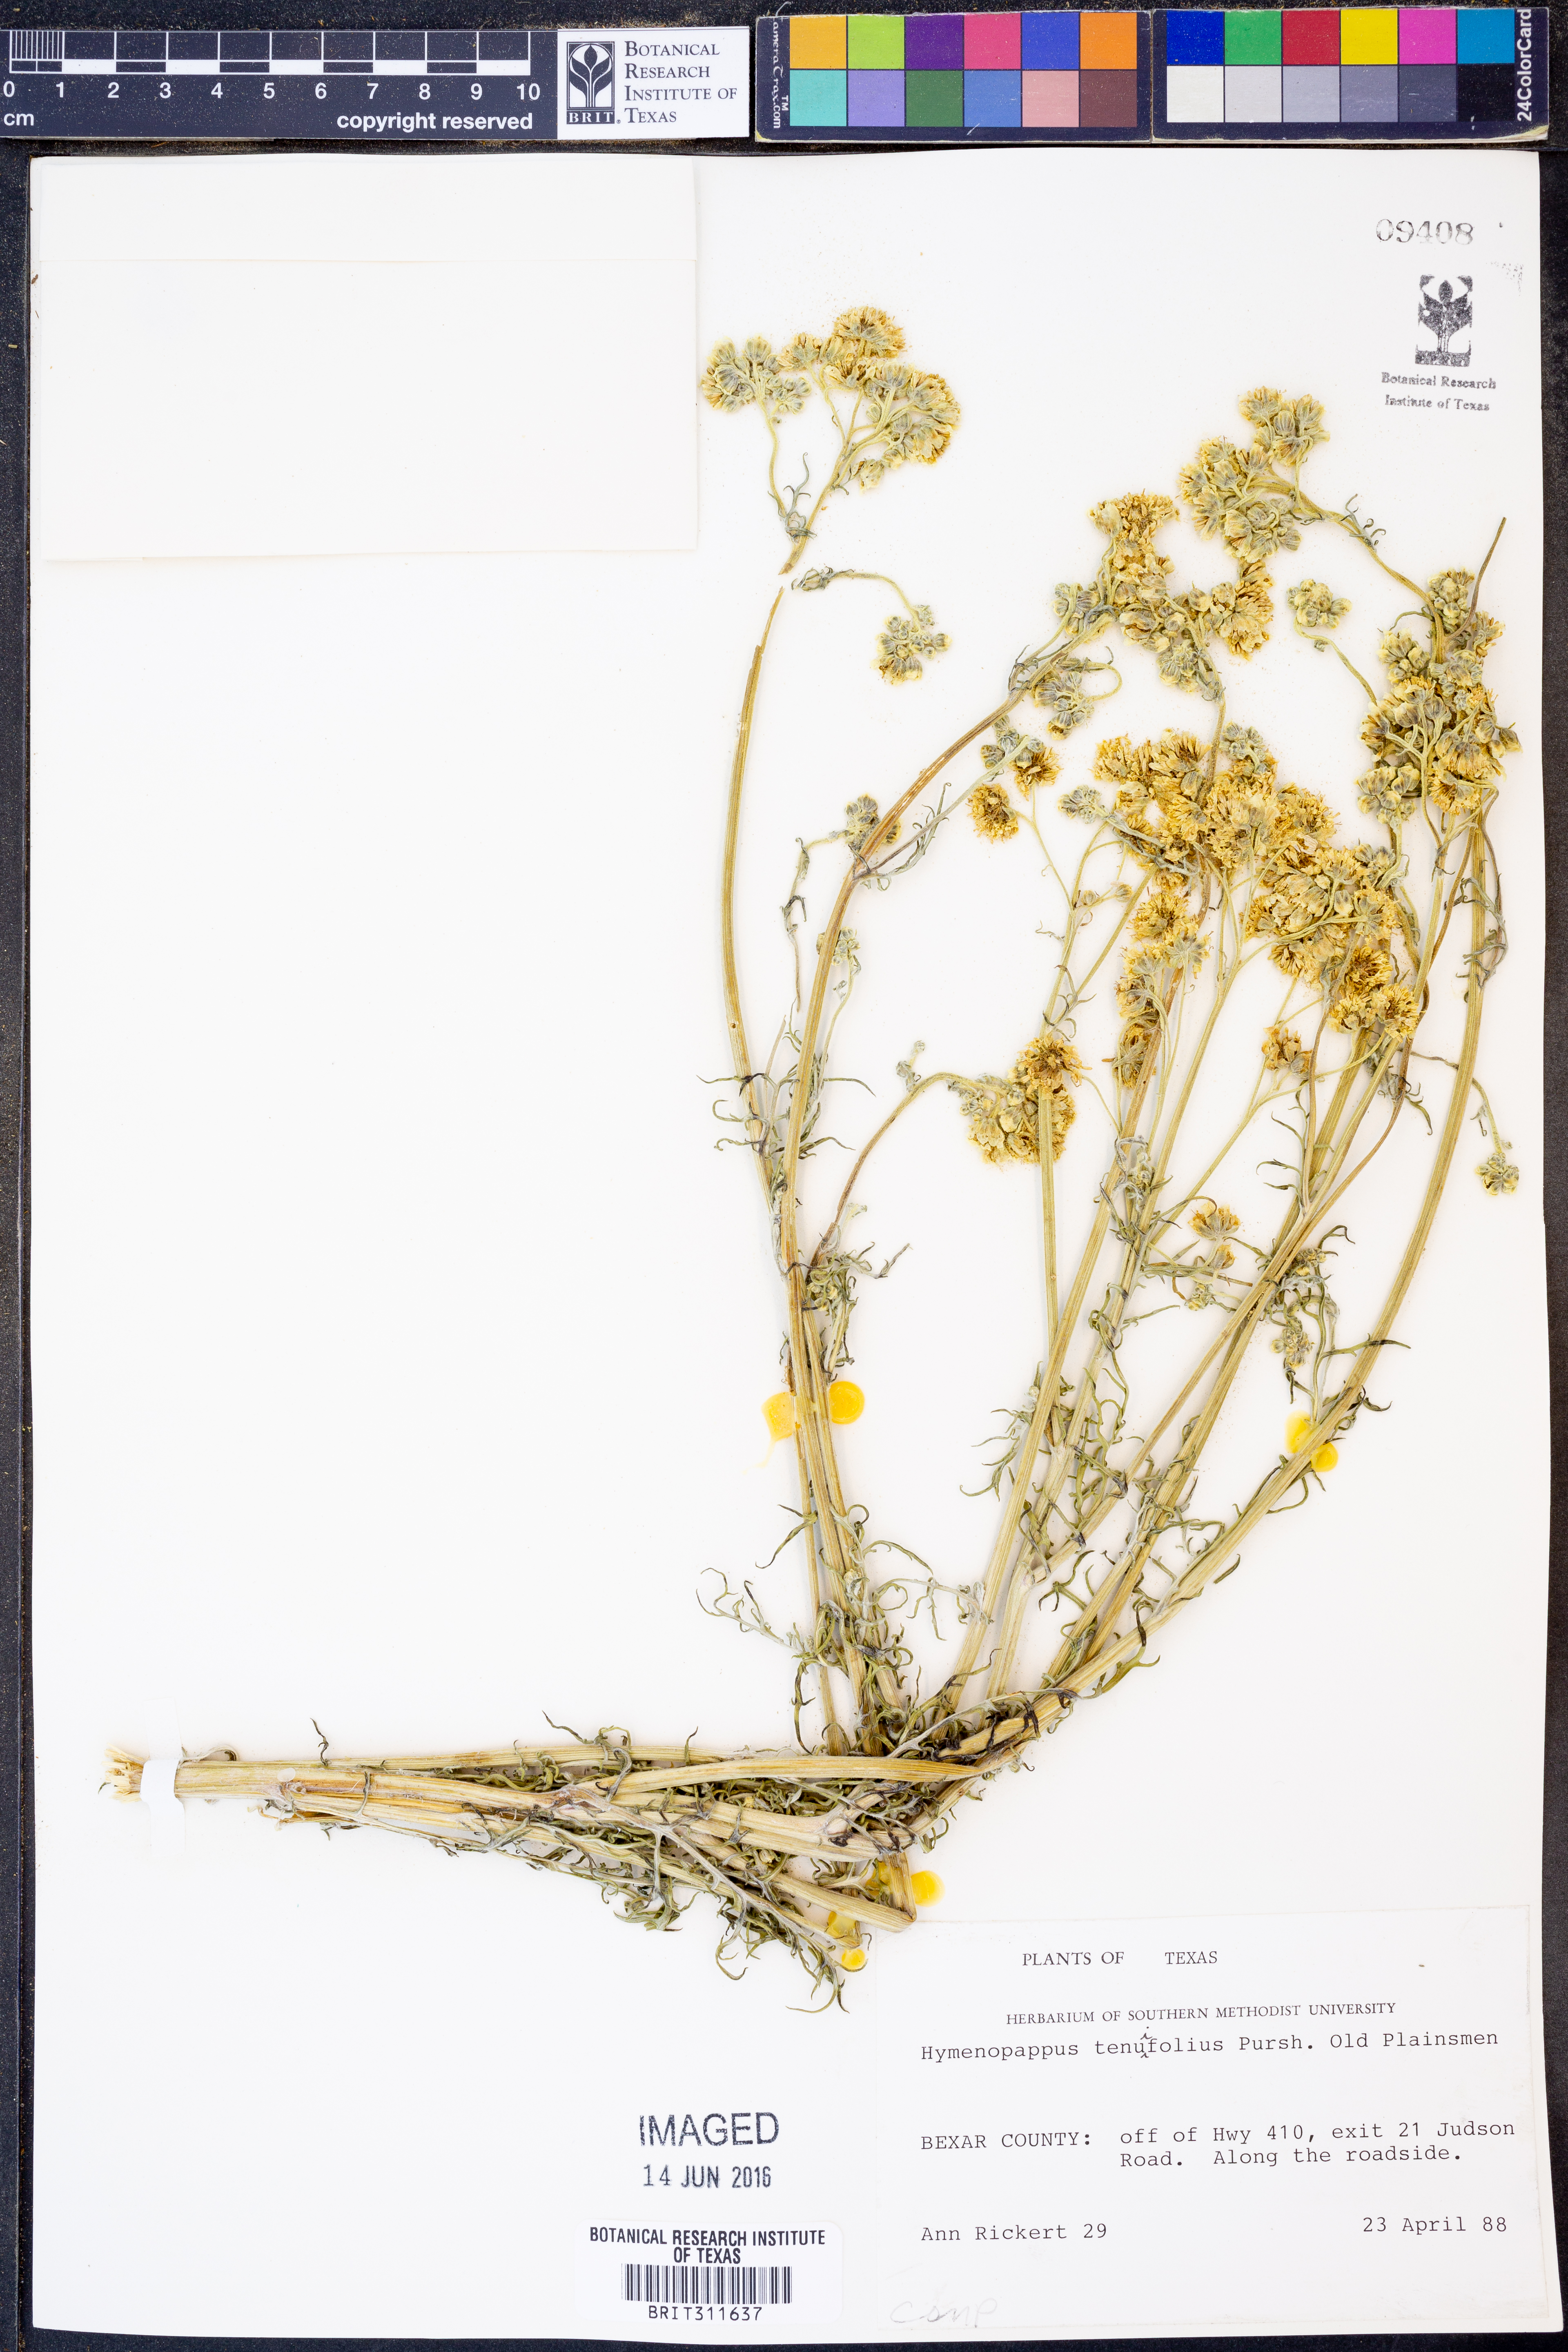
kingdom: Plantae
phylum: Tracheophyta
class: Magnoliopsida
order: Asterales
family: Asteraceae
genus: Hymenopappus
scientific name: Hymenopappus tenuifolius
